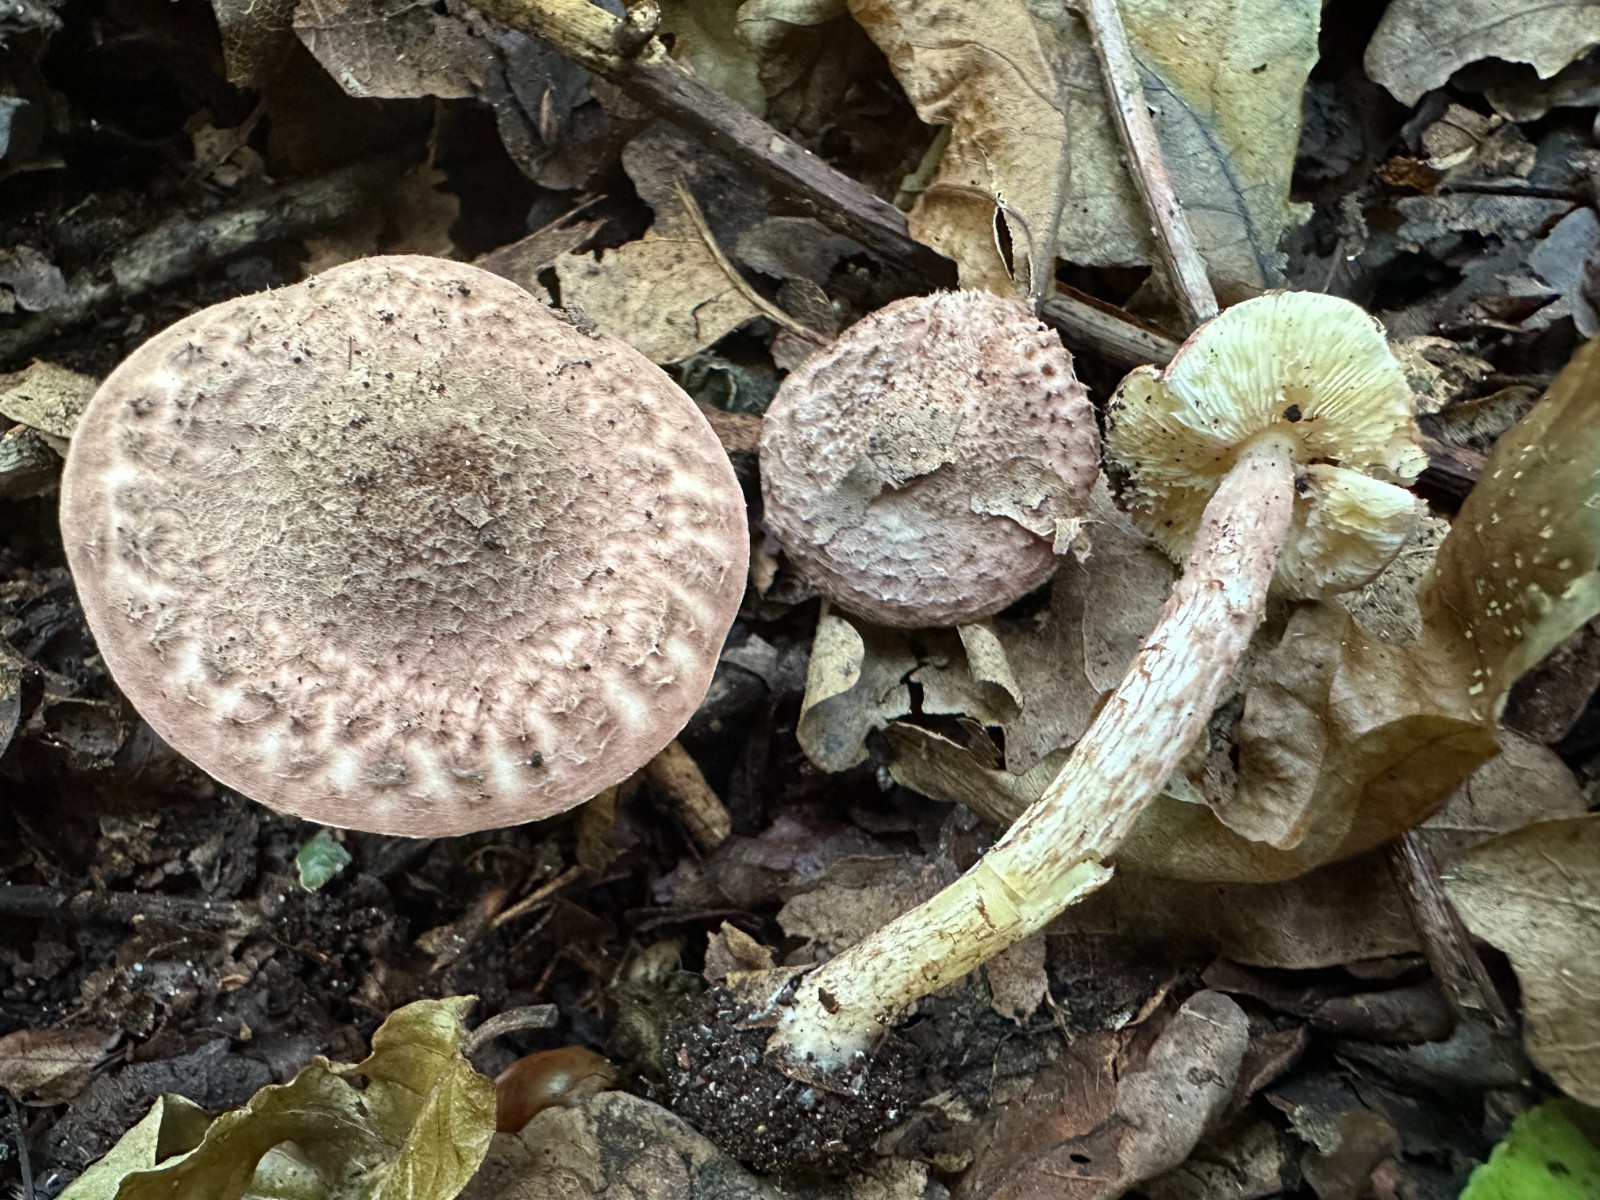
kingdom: Fungi
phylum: Basidiomycota
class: Agaricomycetes
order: Agaricales
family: Agaricaceae
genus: Lepiota
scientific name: Lepiota fuscovinacea
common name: vinrød parasolhat
